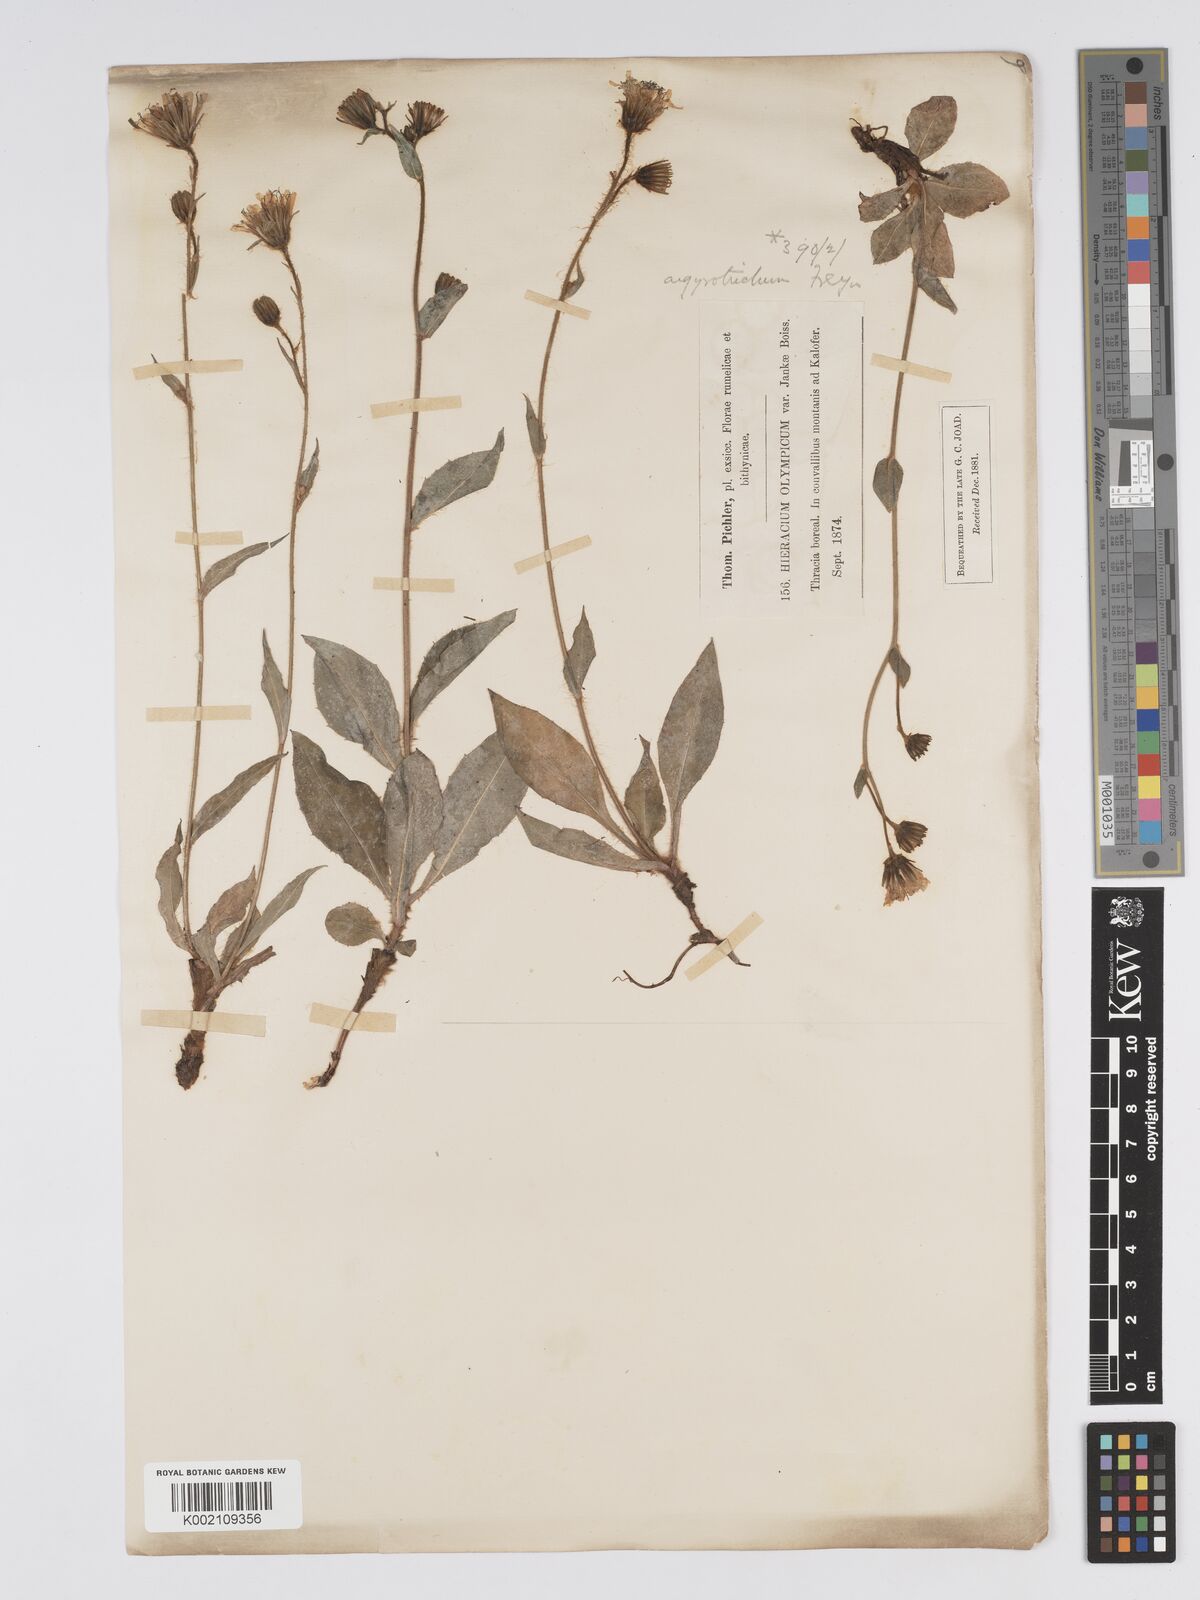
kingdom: Plantae
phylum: Tracheophyta
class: Magnoliopsida
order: Asterales
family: Asteraceae
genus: Hieracium
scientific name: Hieracium olympicum
